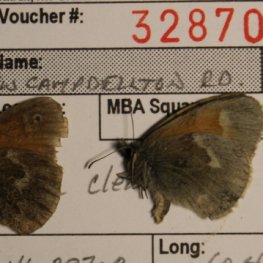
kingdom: Animalia
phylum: Arthropoda
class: Insecta
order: Lepidoptera
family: Nymphalidae
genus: Coenonympha
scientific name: Coenonympha tullia
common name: Large Heath
